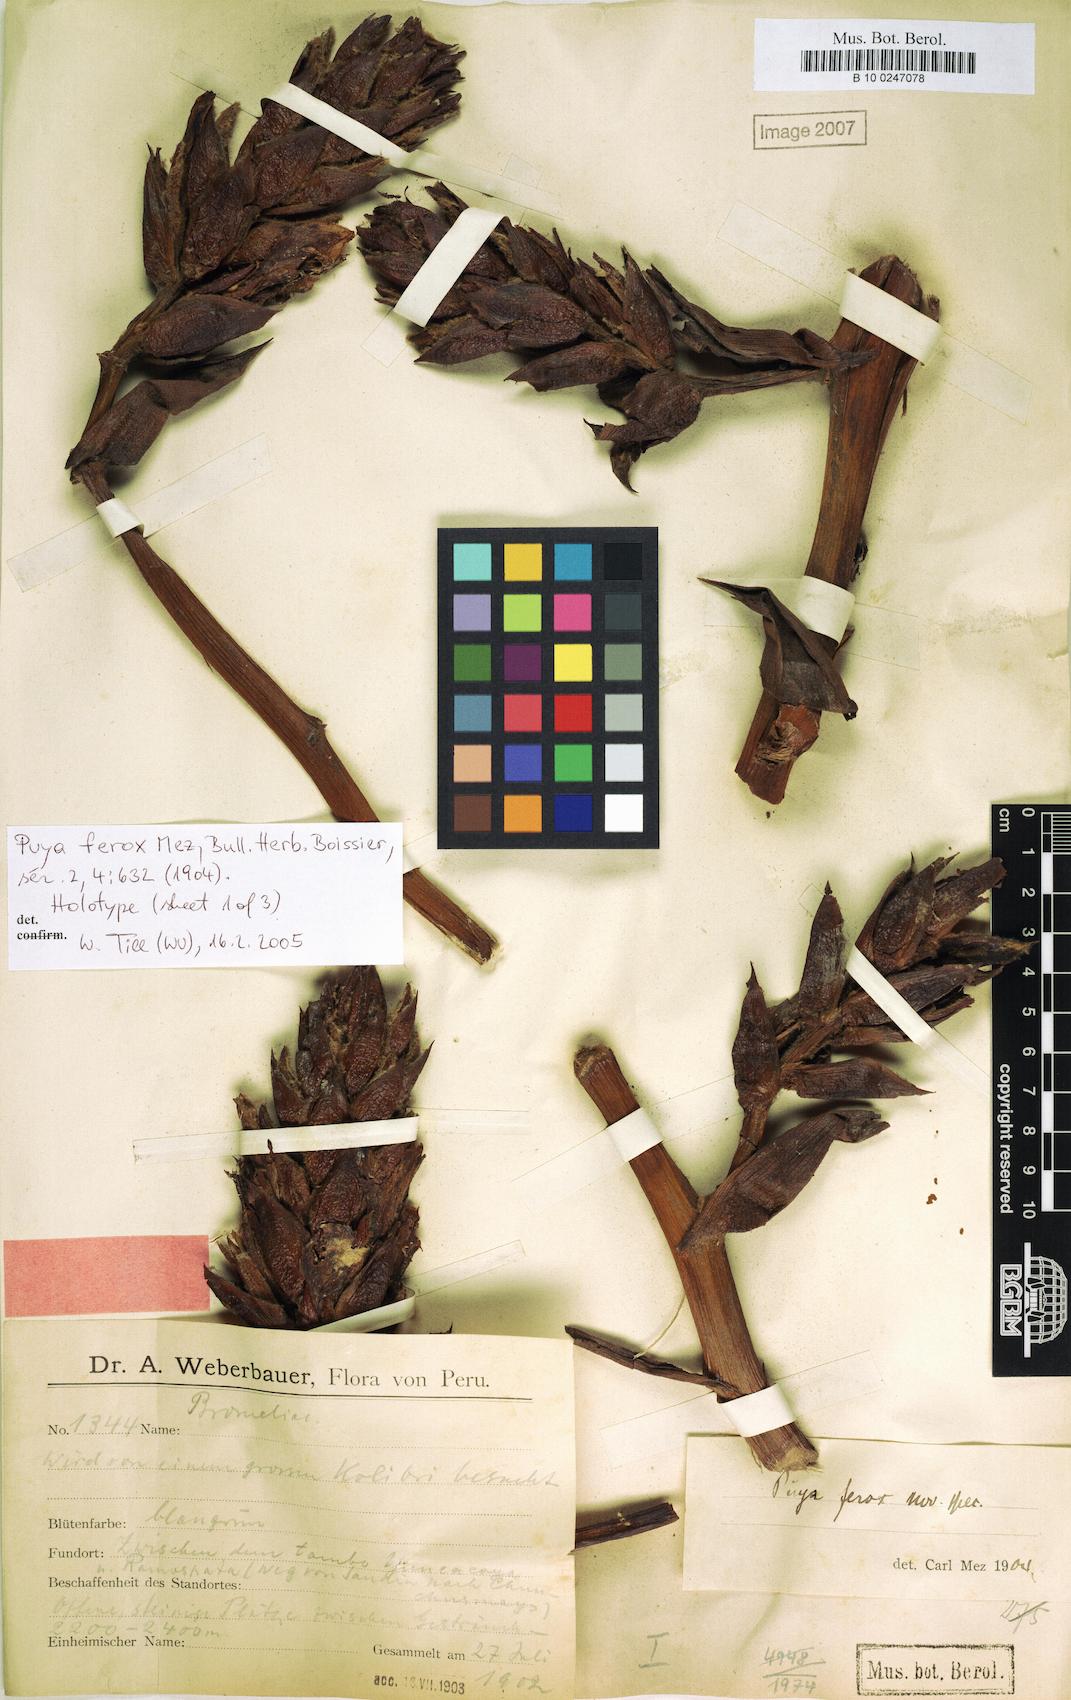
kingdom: Plantae
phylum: Tracheophyta
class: Liliopsida
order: Poales
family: Bromeliaceae
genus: Puya
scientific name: Puya ferox
